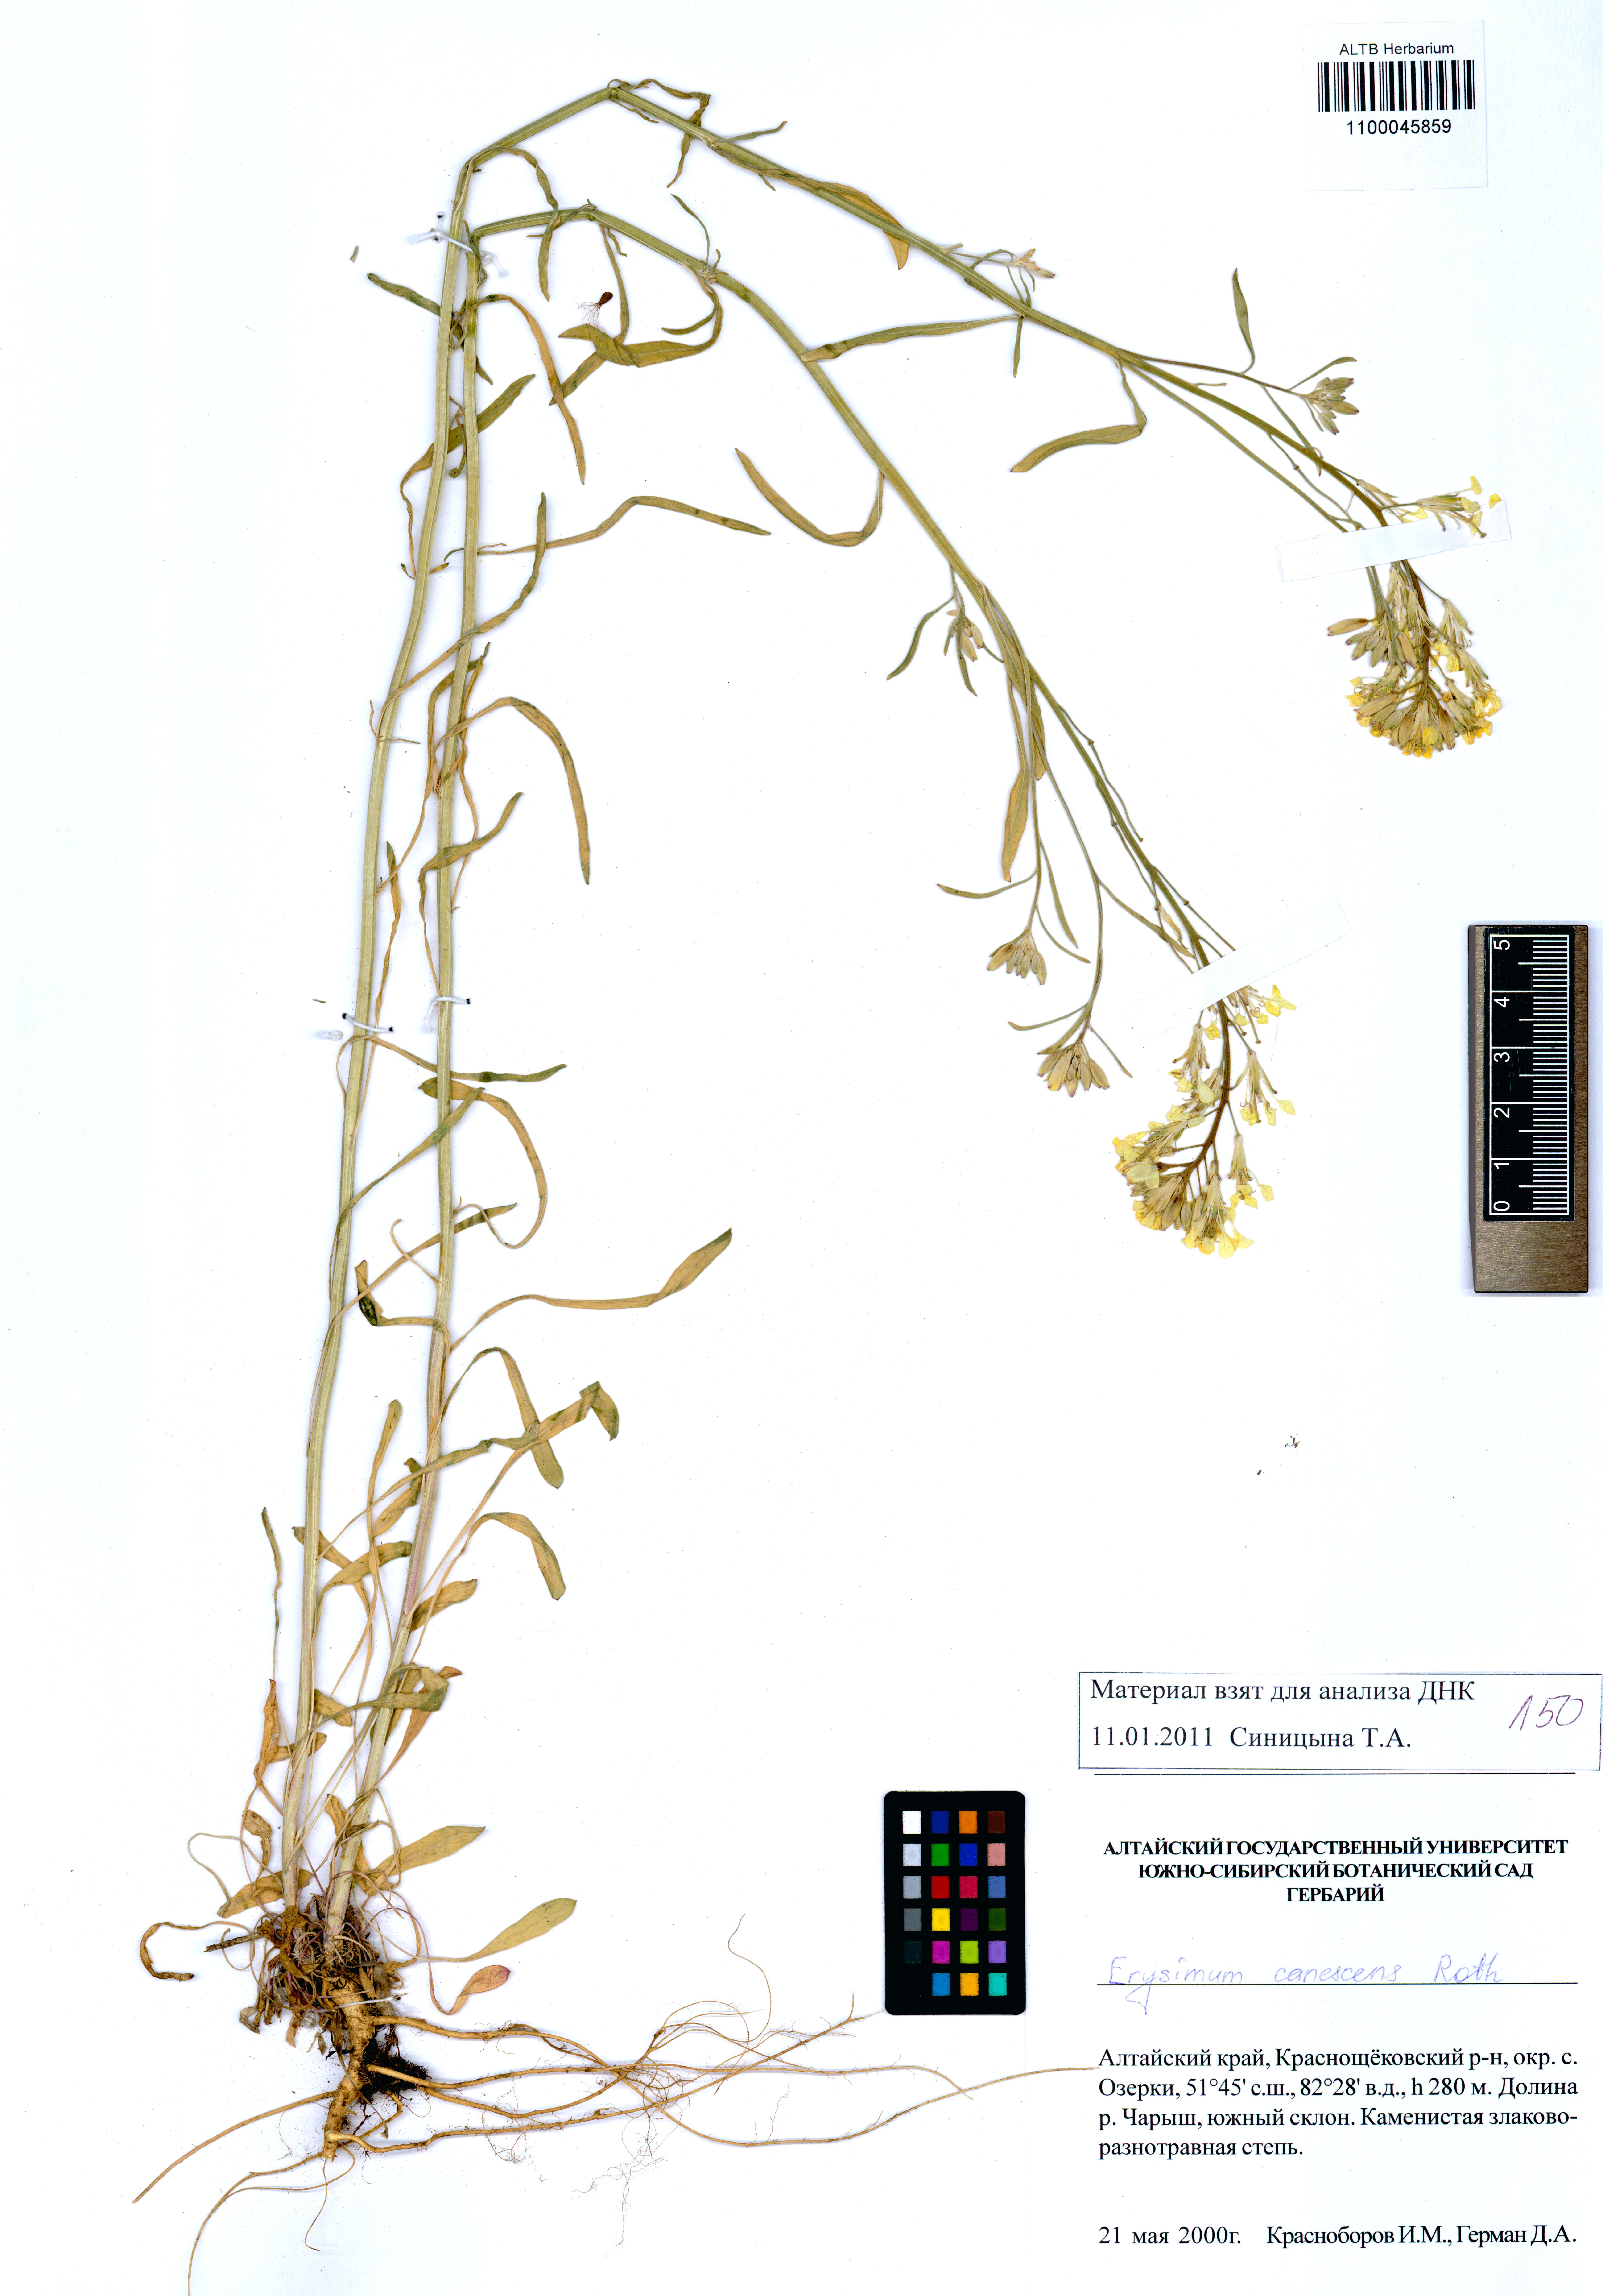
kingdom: Plantae
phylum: Tracheophyta
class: Magnoliopsida
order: Brassicales
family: Brassicaceae
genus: Erysimum
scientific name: Erysimum canescens
